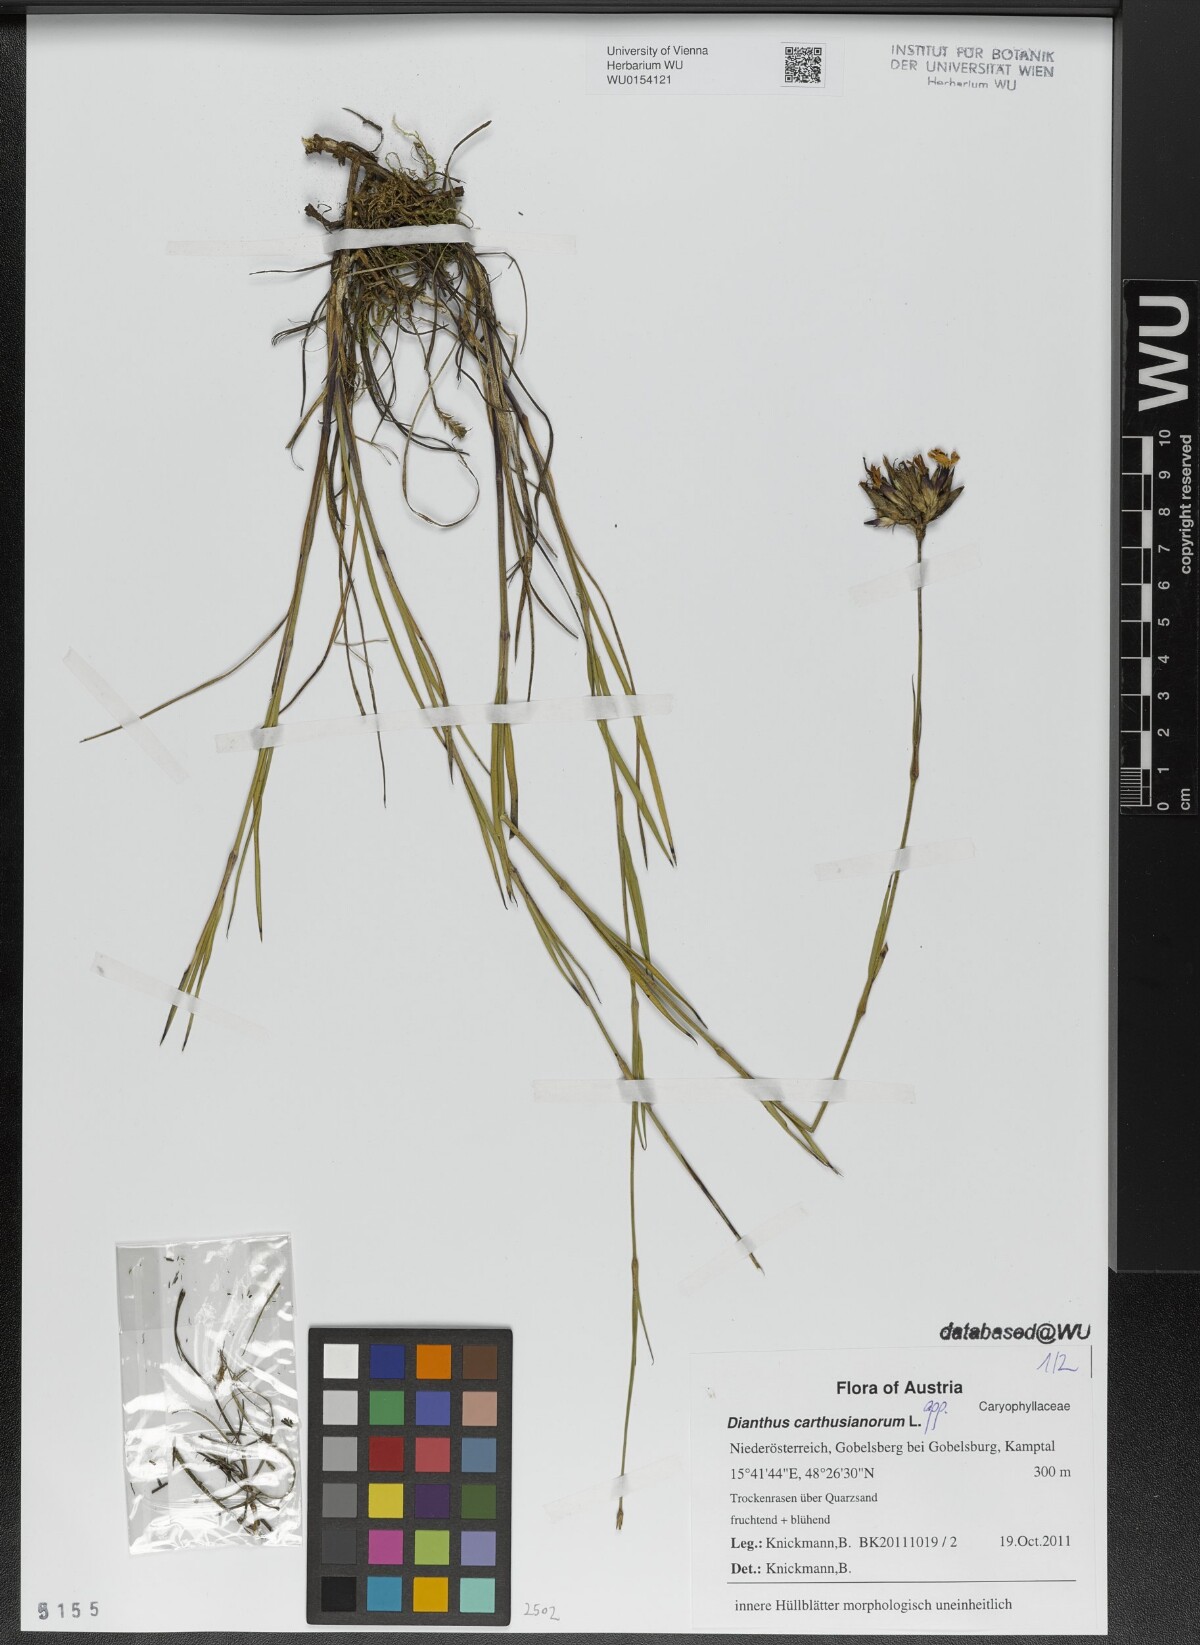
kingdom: Plantae
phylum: Tracheophyta
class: Magnoliopsida
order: Caryophyllales
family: Caryophyllaceae
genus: Dianthus
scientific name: Dianthus carthusianorum
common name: Carthusian pink
